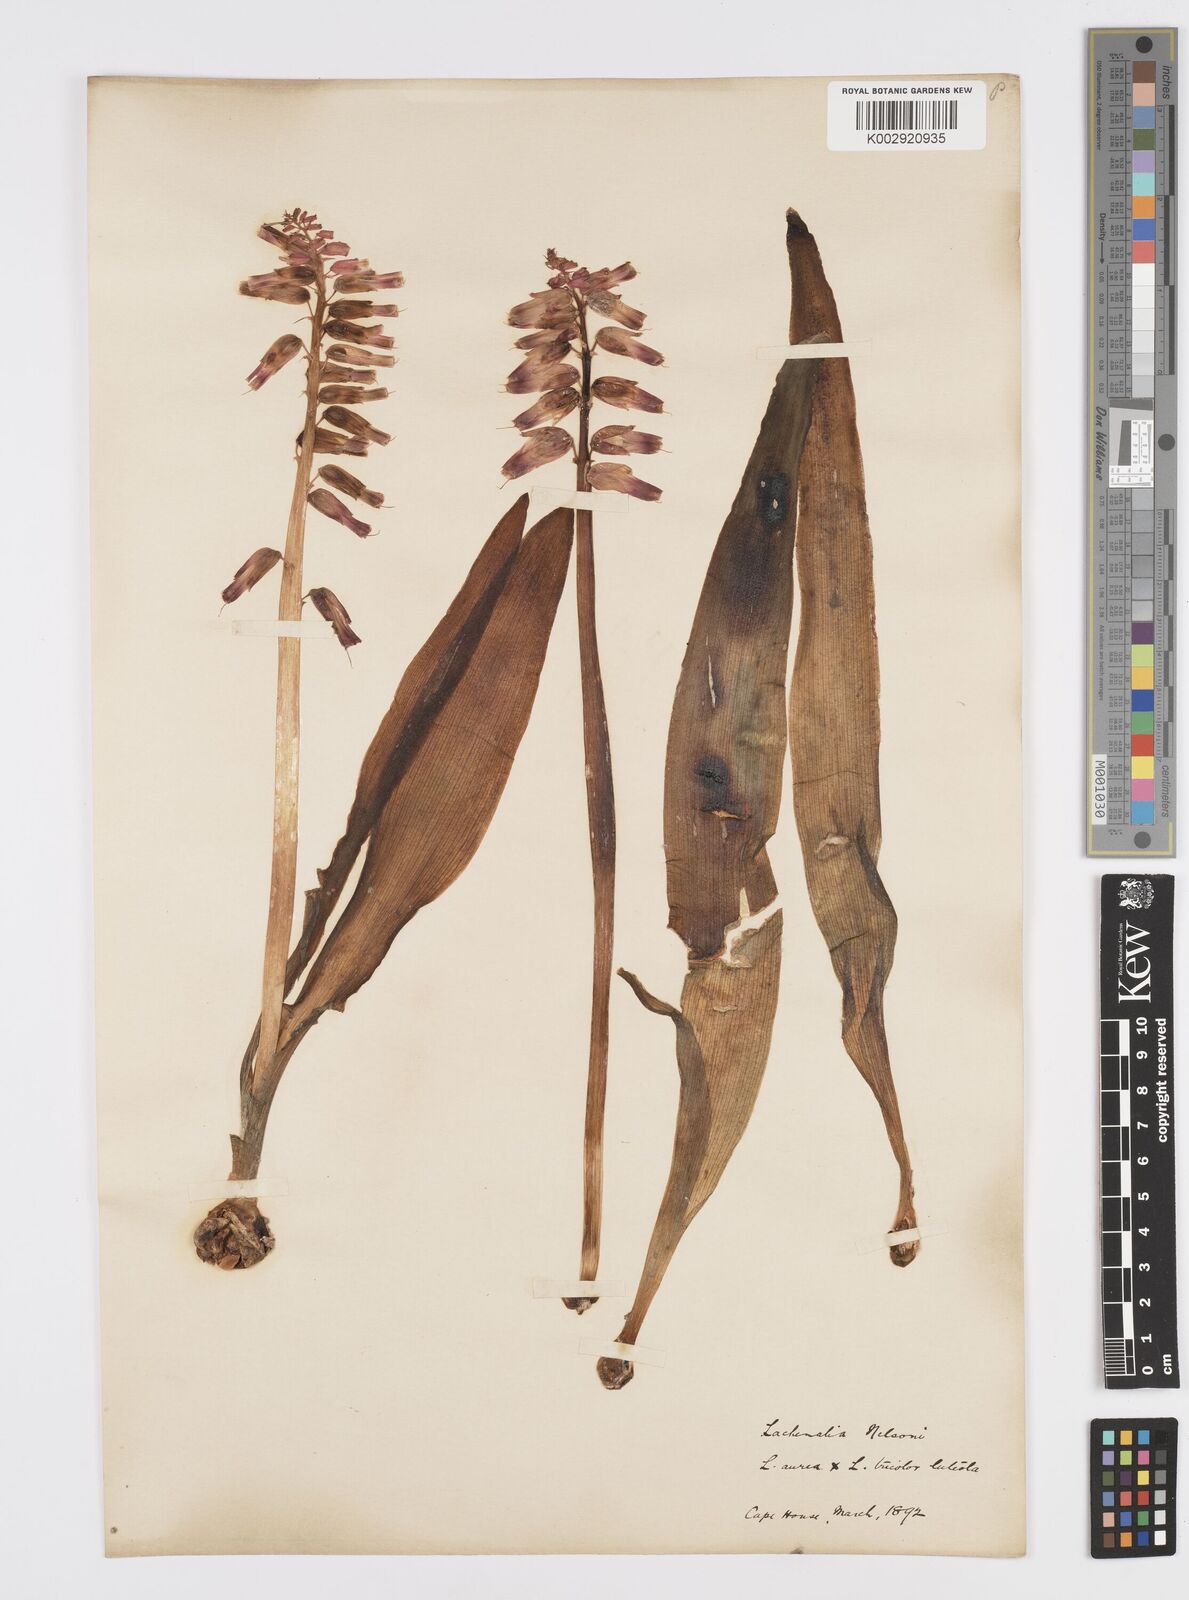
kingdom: Plantae
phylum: Tracheophyta
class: Liliopsida
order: Asparagales
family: Asparagaceae
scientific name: Asparagaceae
